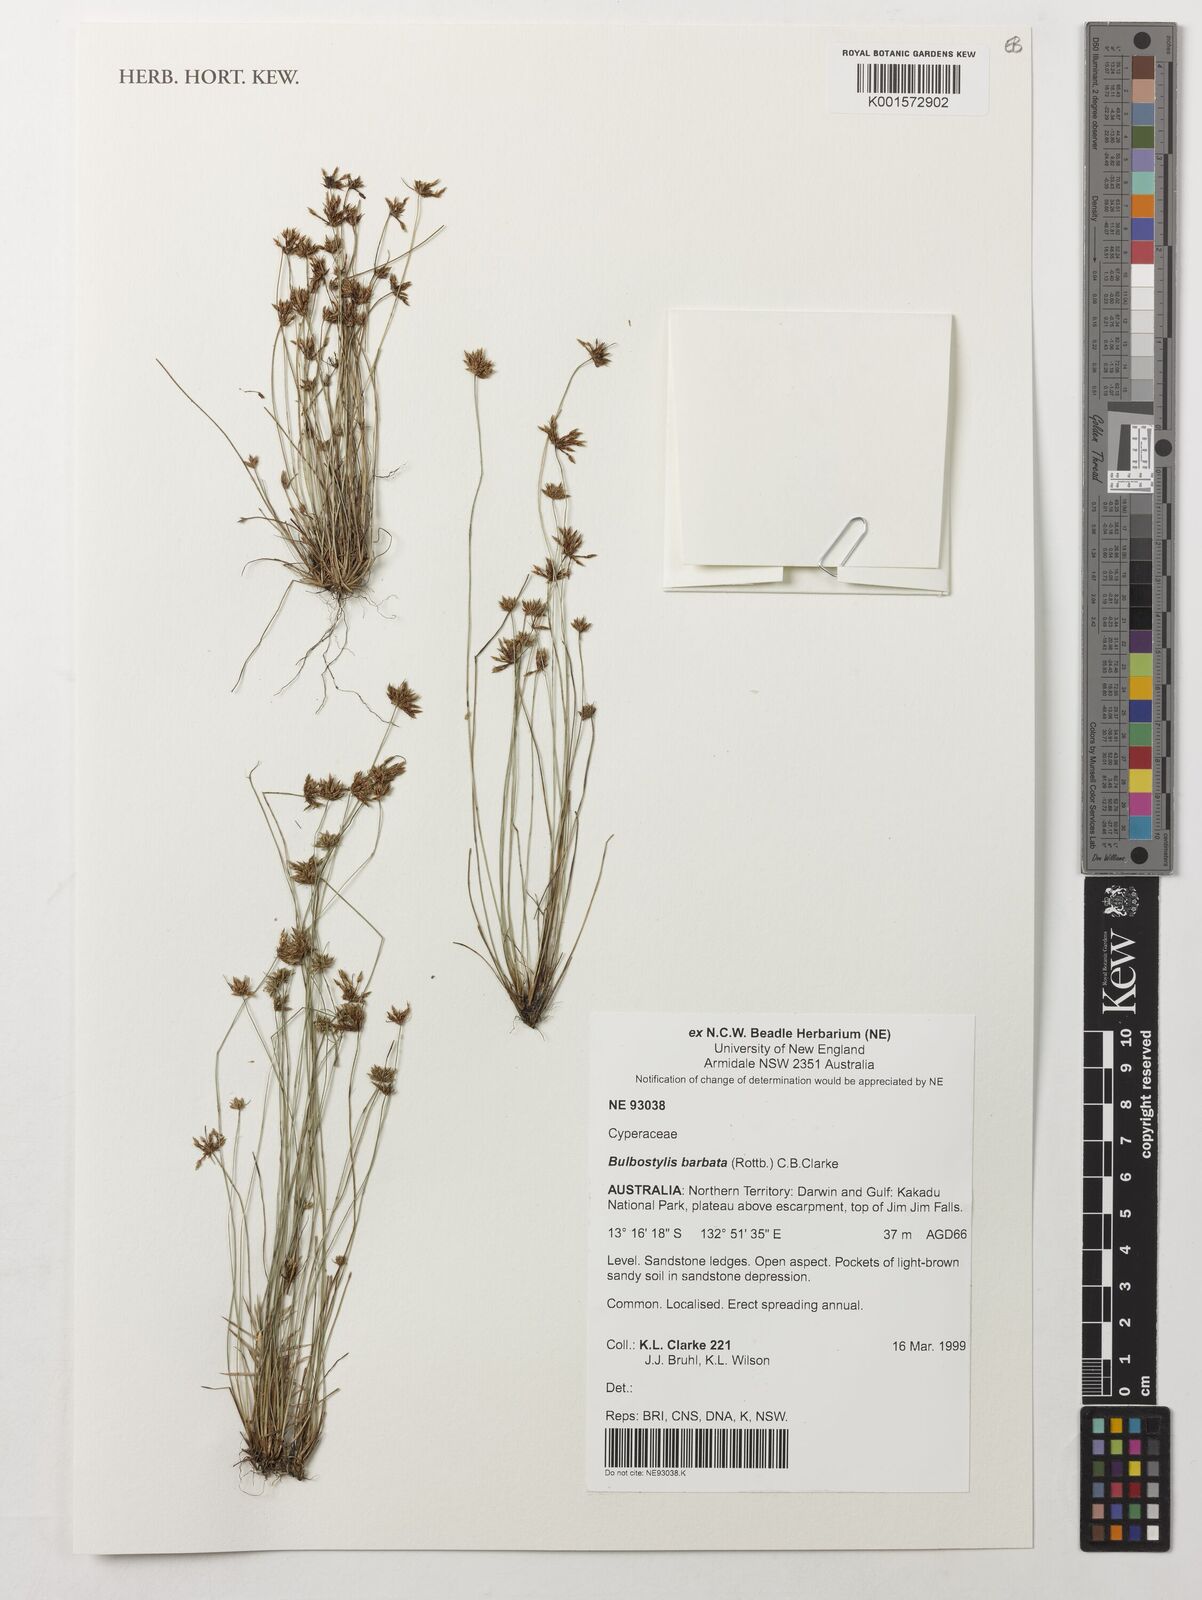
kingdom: Plantae
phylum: Tracheophyta
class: Liliopsida
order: Poales
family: Cyperaceae
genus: Bulbostylis
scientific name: Bulbostylis barbata
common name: Watergrass
